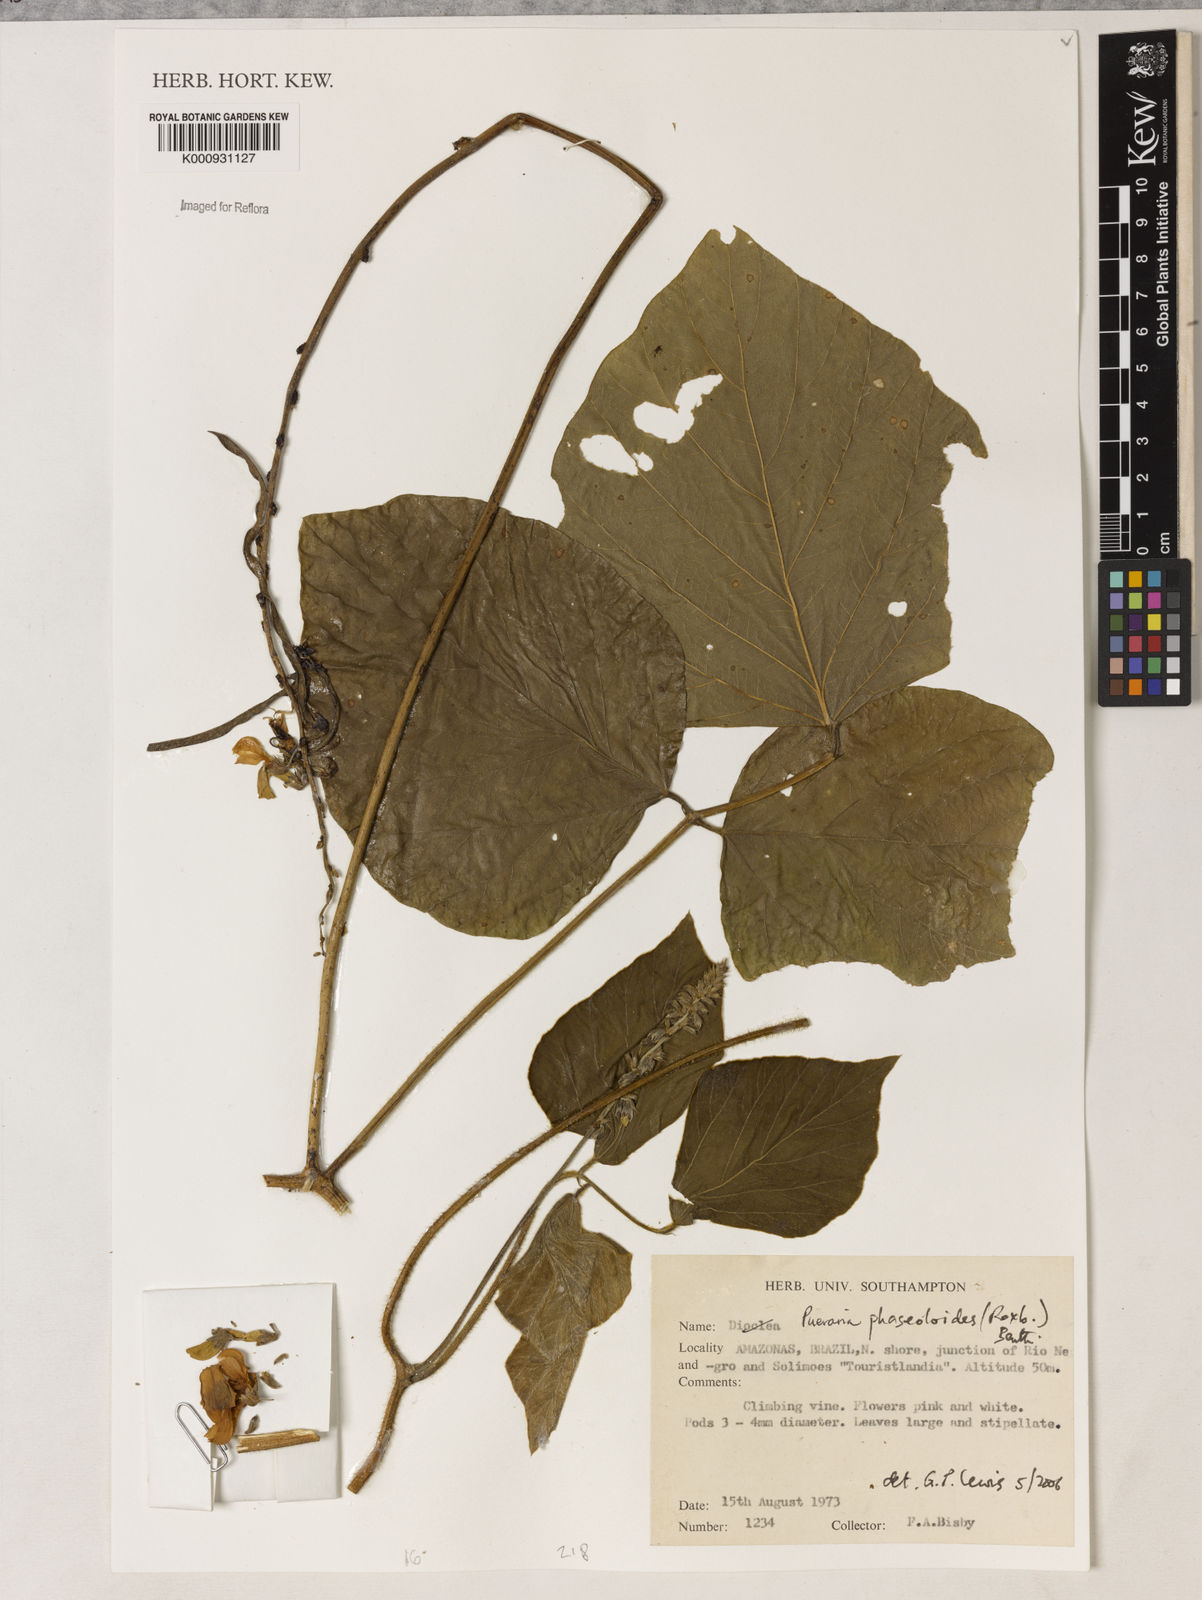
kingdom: Plantae
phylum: Tracheophyta
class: Magnoliopsida
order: Fabales
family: Fabaceae
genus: Neustanthus
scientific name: Neustanthus phaseoloides
